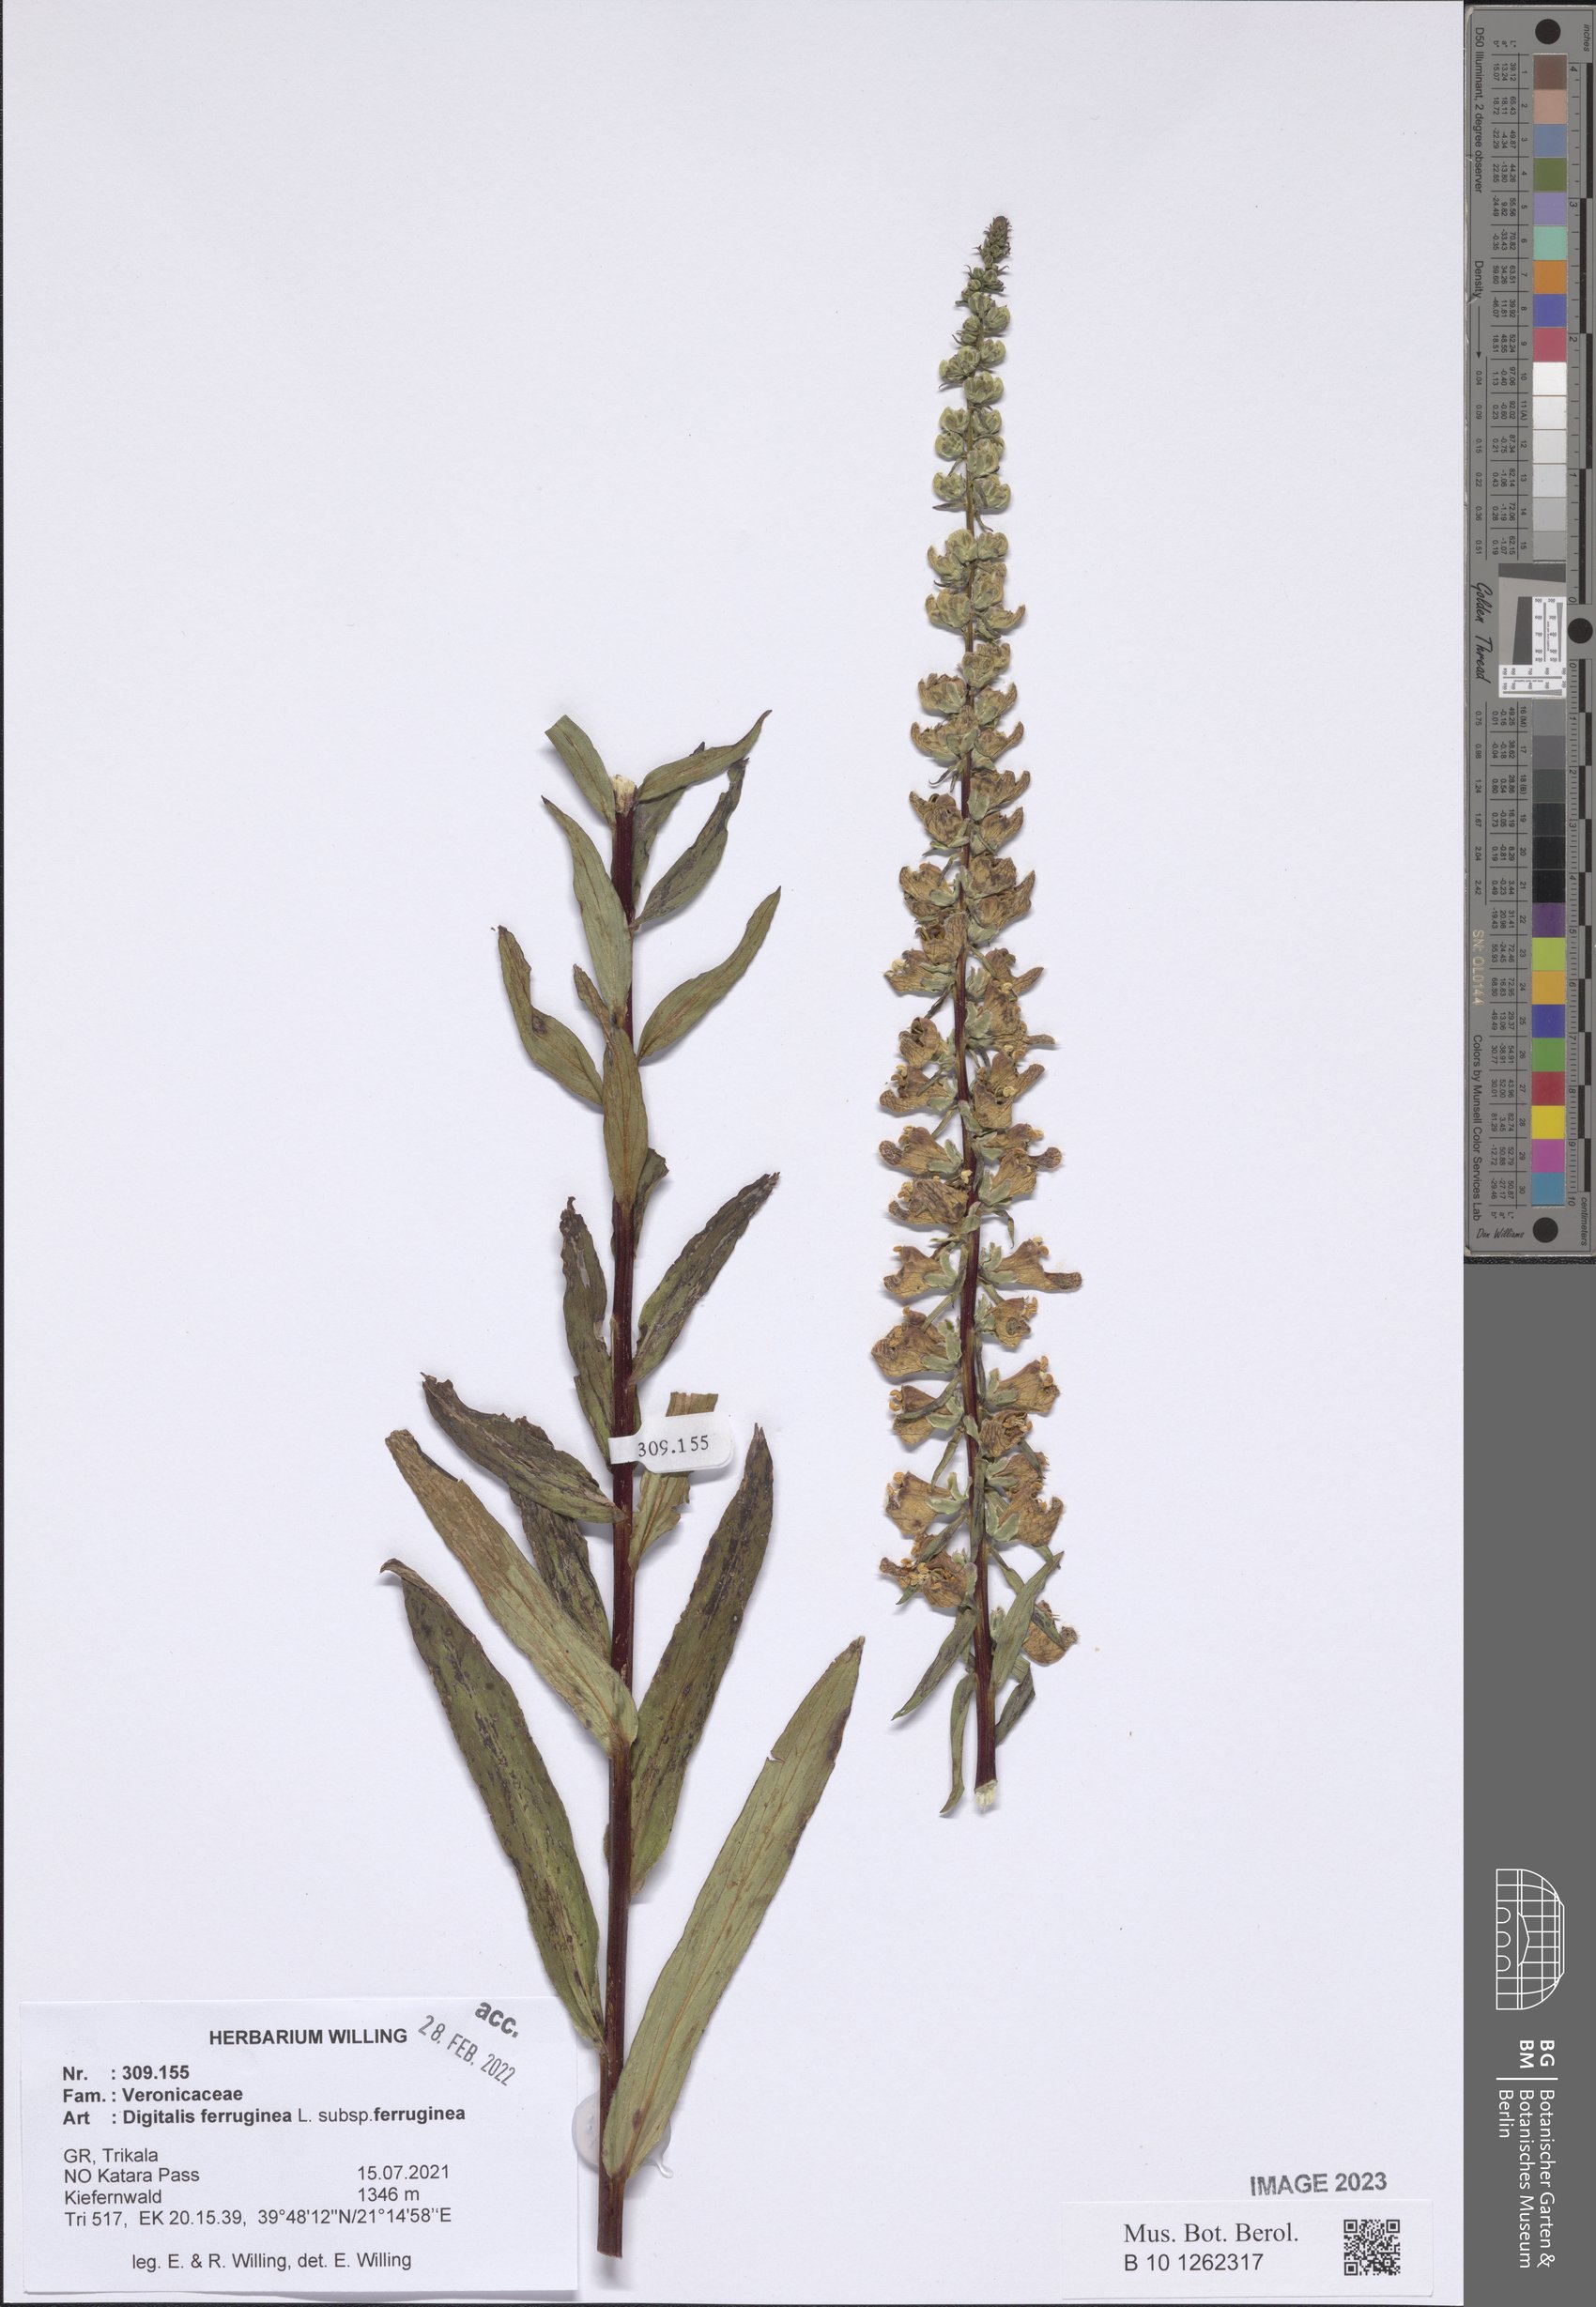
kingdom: Plantae
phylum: Tracheophyta
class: Magnoliopsida
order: Lamiales
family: Plantaginaceae
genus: Digitalis
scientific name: Digitalis ferruginea
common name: Rusty foxglove
